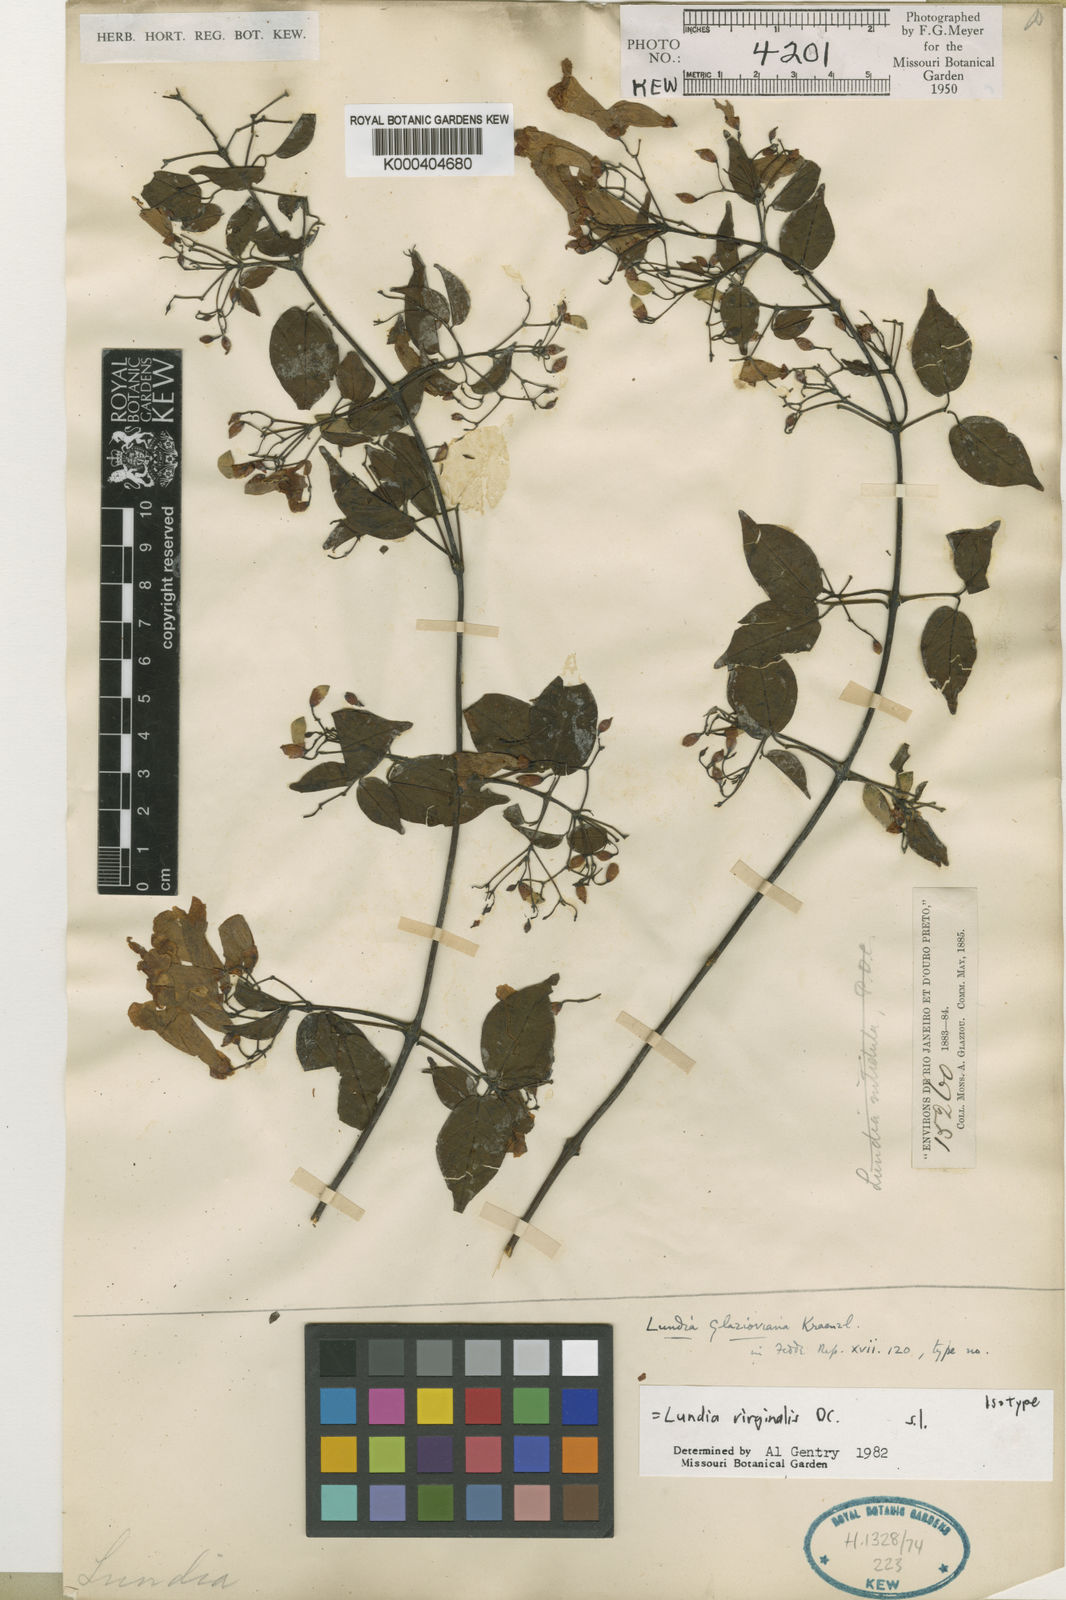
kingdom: Plantae
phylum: Tracheophyta
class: Magnoliopsida
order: Lamiales
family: Bignoniaceae
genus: Lundia
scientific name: Lundia virginalis
